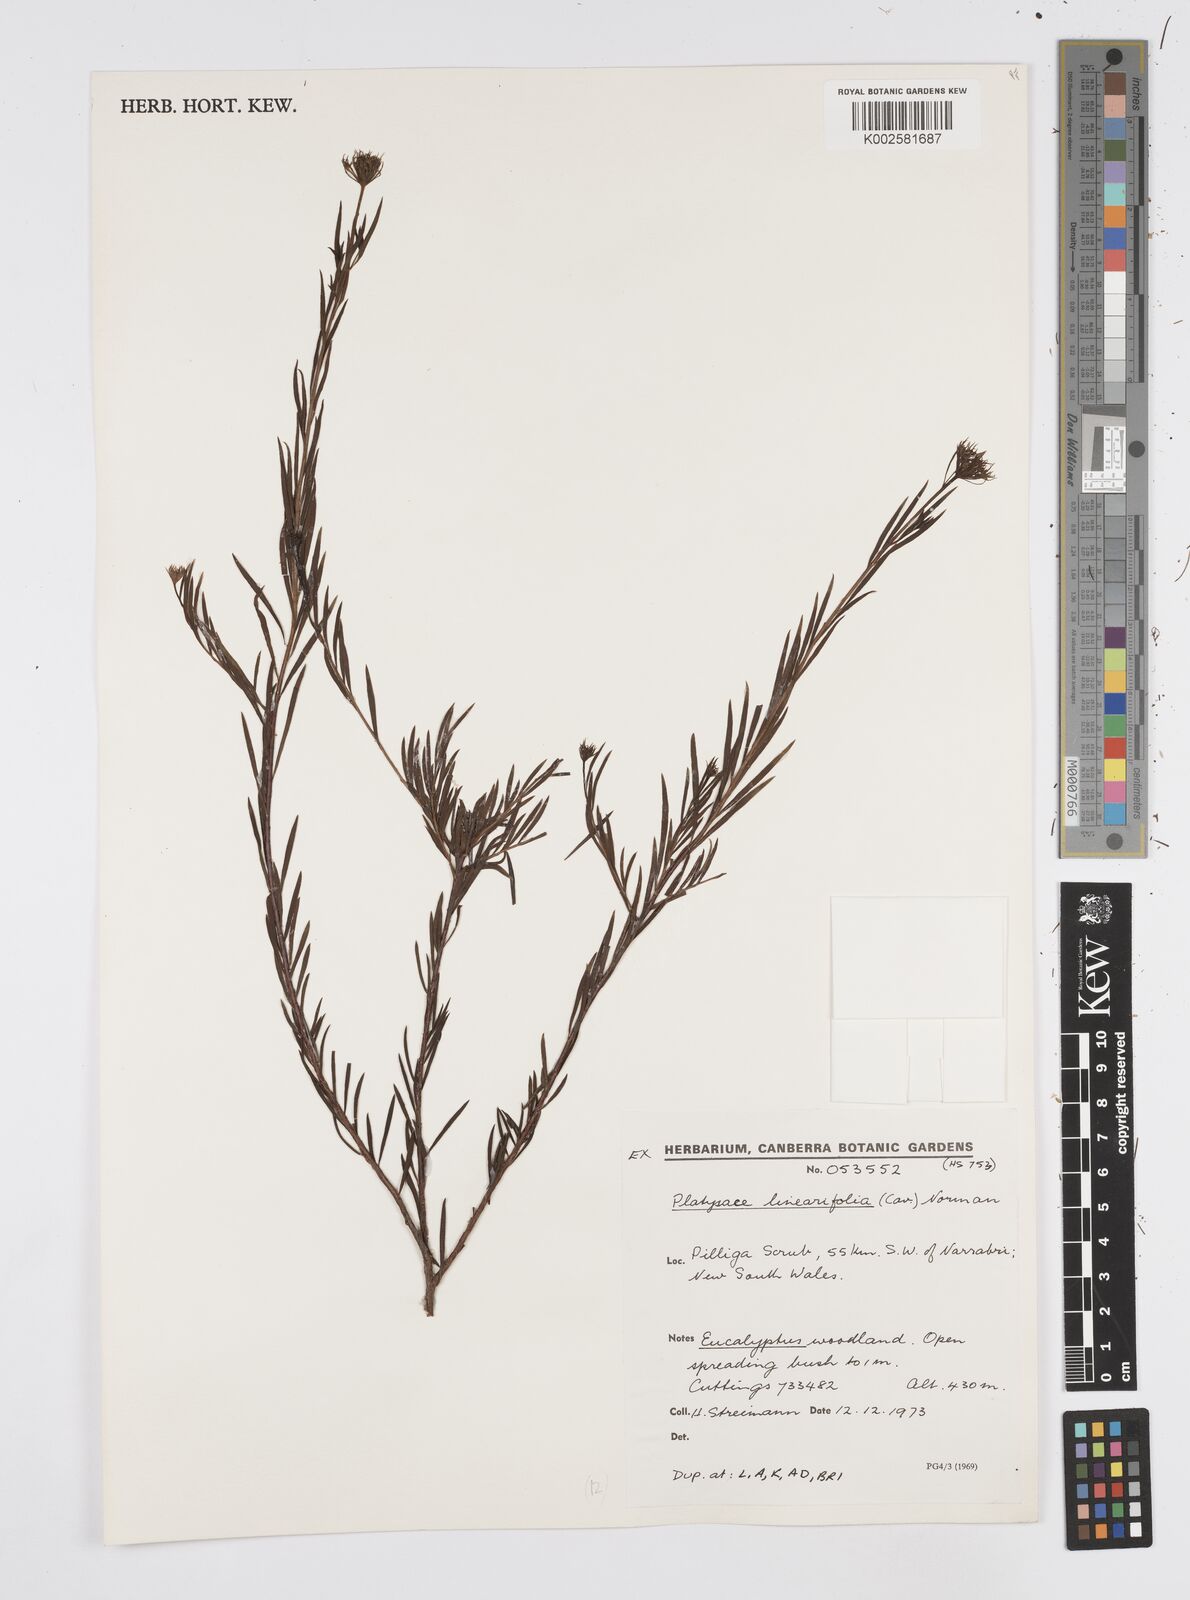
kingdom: Plantae
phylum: Tracheophyta
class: Magnoliopsida
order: Apiales
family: Apiaceae
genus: Platysace
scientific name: Platysace linearifolia
